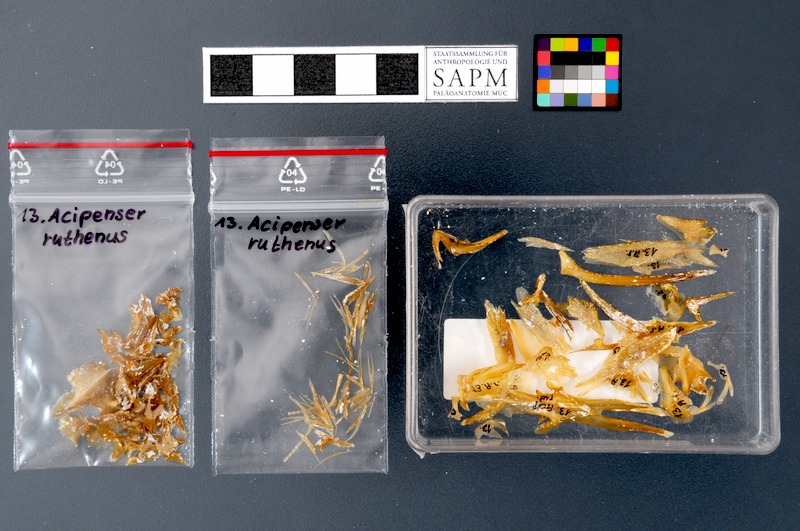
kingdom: Animalia
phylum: Chordata
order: Acipenseriformes
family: Acipenseridae
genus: Acipenser
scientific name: Acipenser ruthenus
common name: Sterlet
